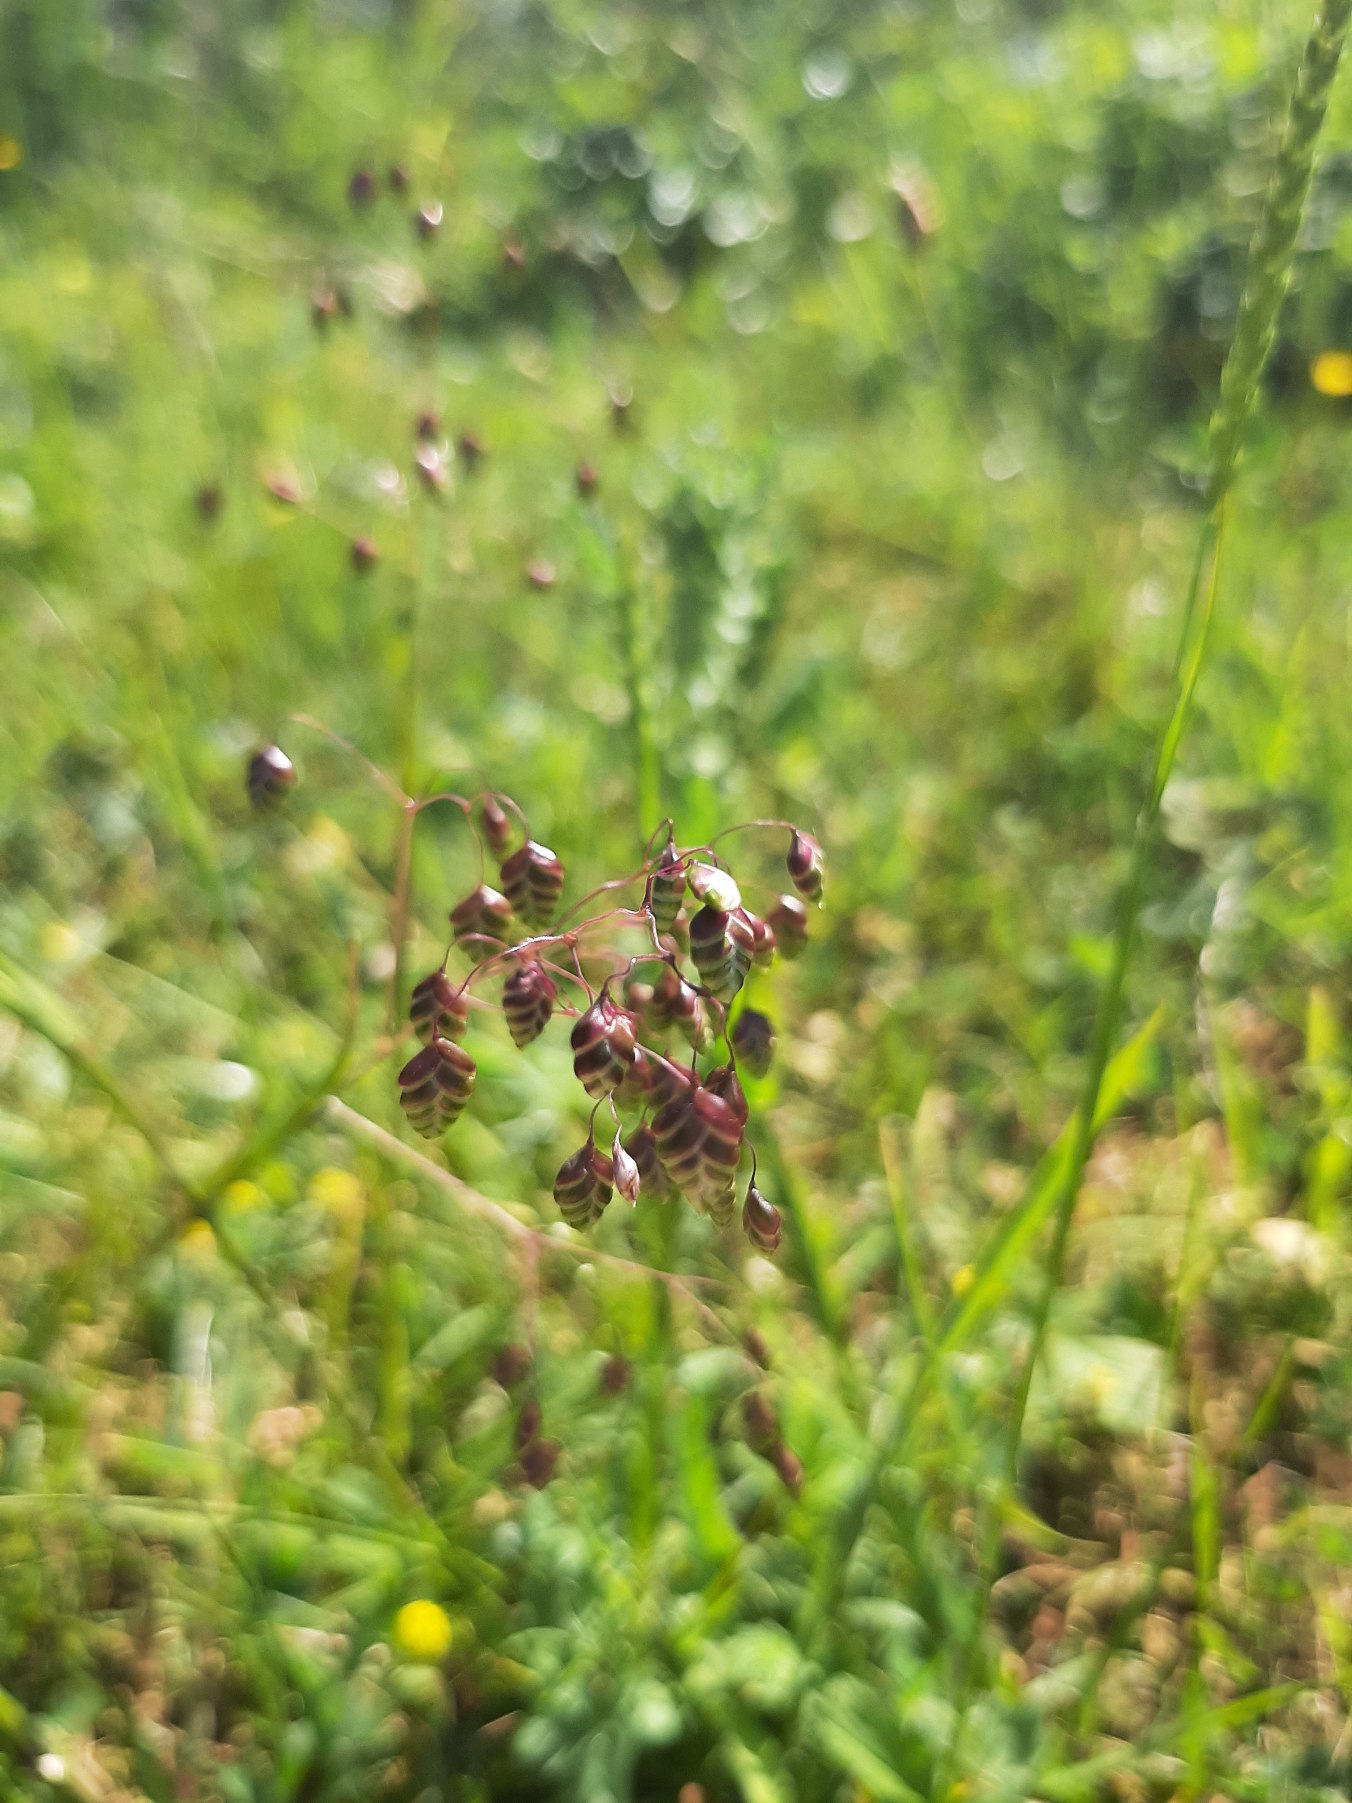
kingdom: Plantae
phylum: Tracheophyta
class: Liliopsida
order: Poales
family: Poaceae
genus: Briza
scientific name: Briza media
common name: Hjertegræs
